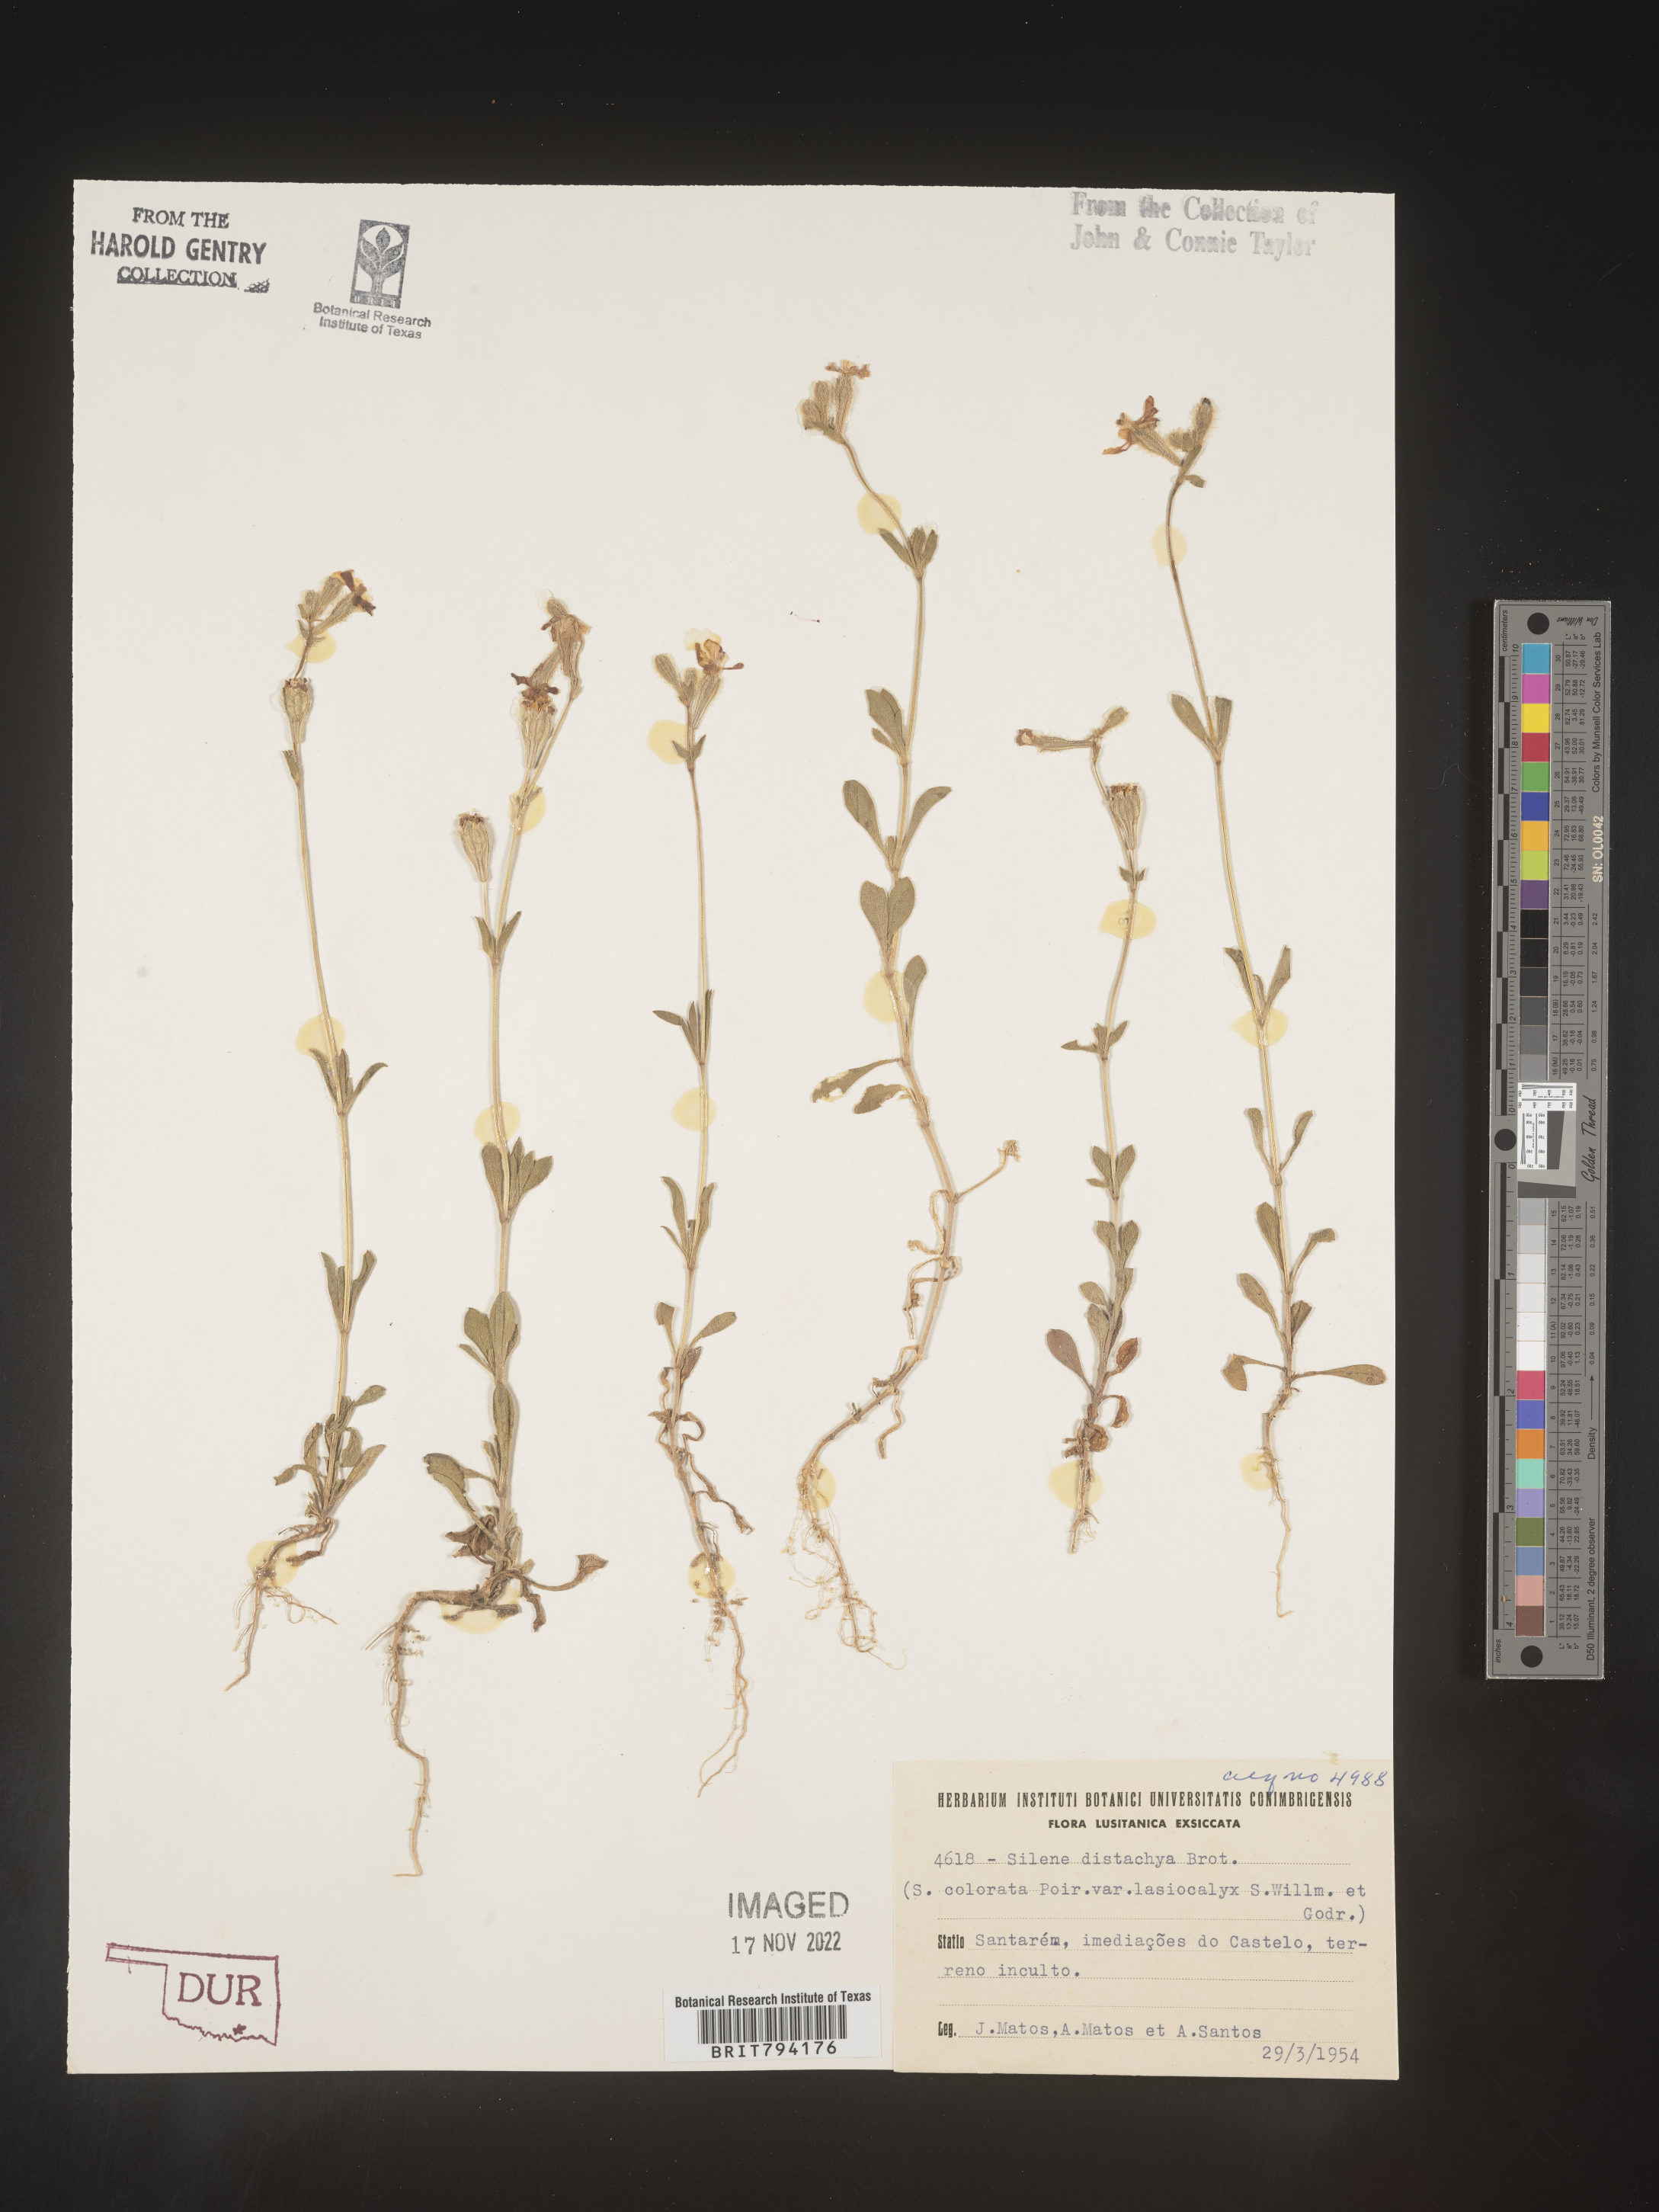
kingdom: Plantae
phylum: Tracheophyta
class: Magnoliopsida
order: Caryophyllales
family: Caryophyllaceae
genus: Silene
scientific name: Silene colorata
